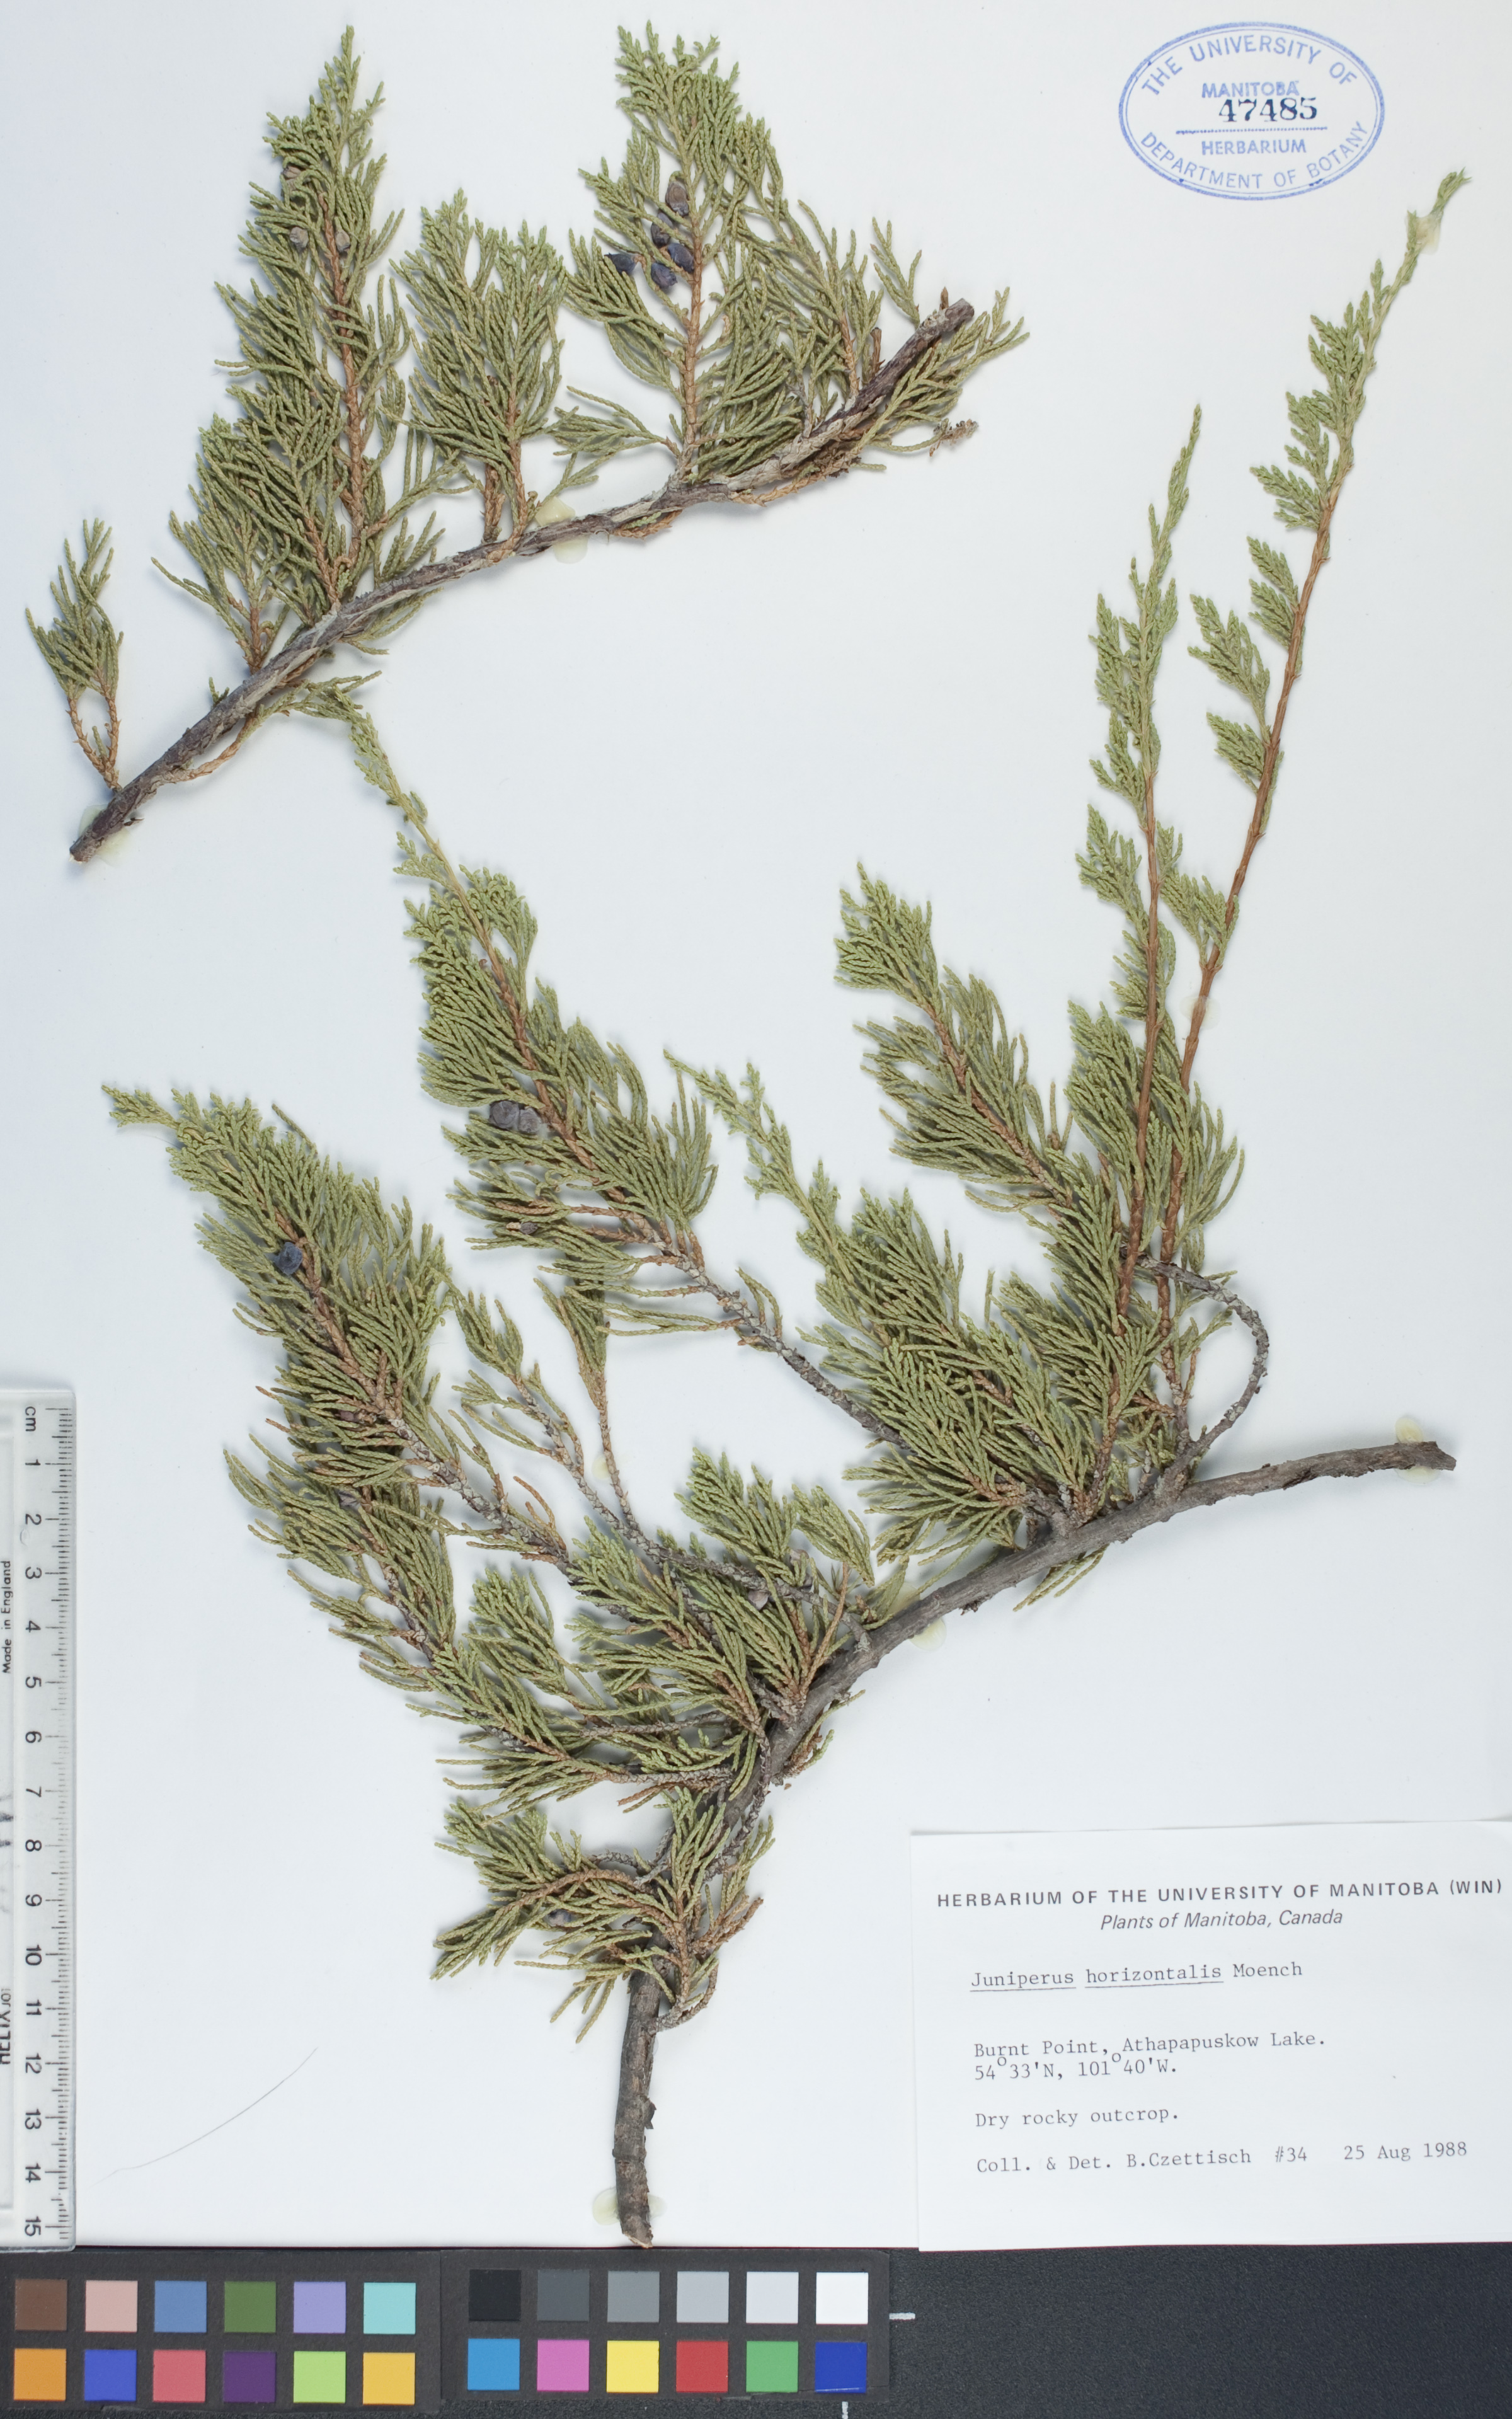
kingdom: Plantae
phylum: Tracheophyta
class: Pinopsida
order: Pinales
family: Cupressaceae
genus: Juniperus
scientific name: Juniperus horizontalis
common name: Creeping juniper
